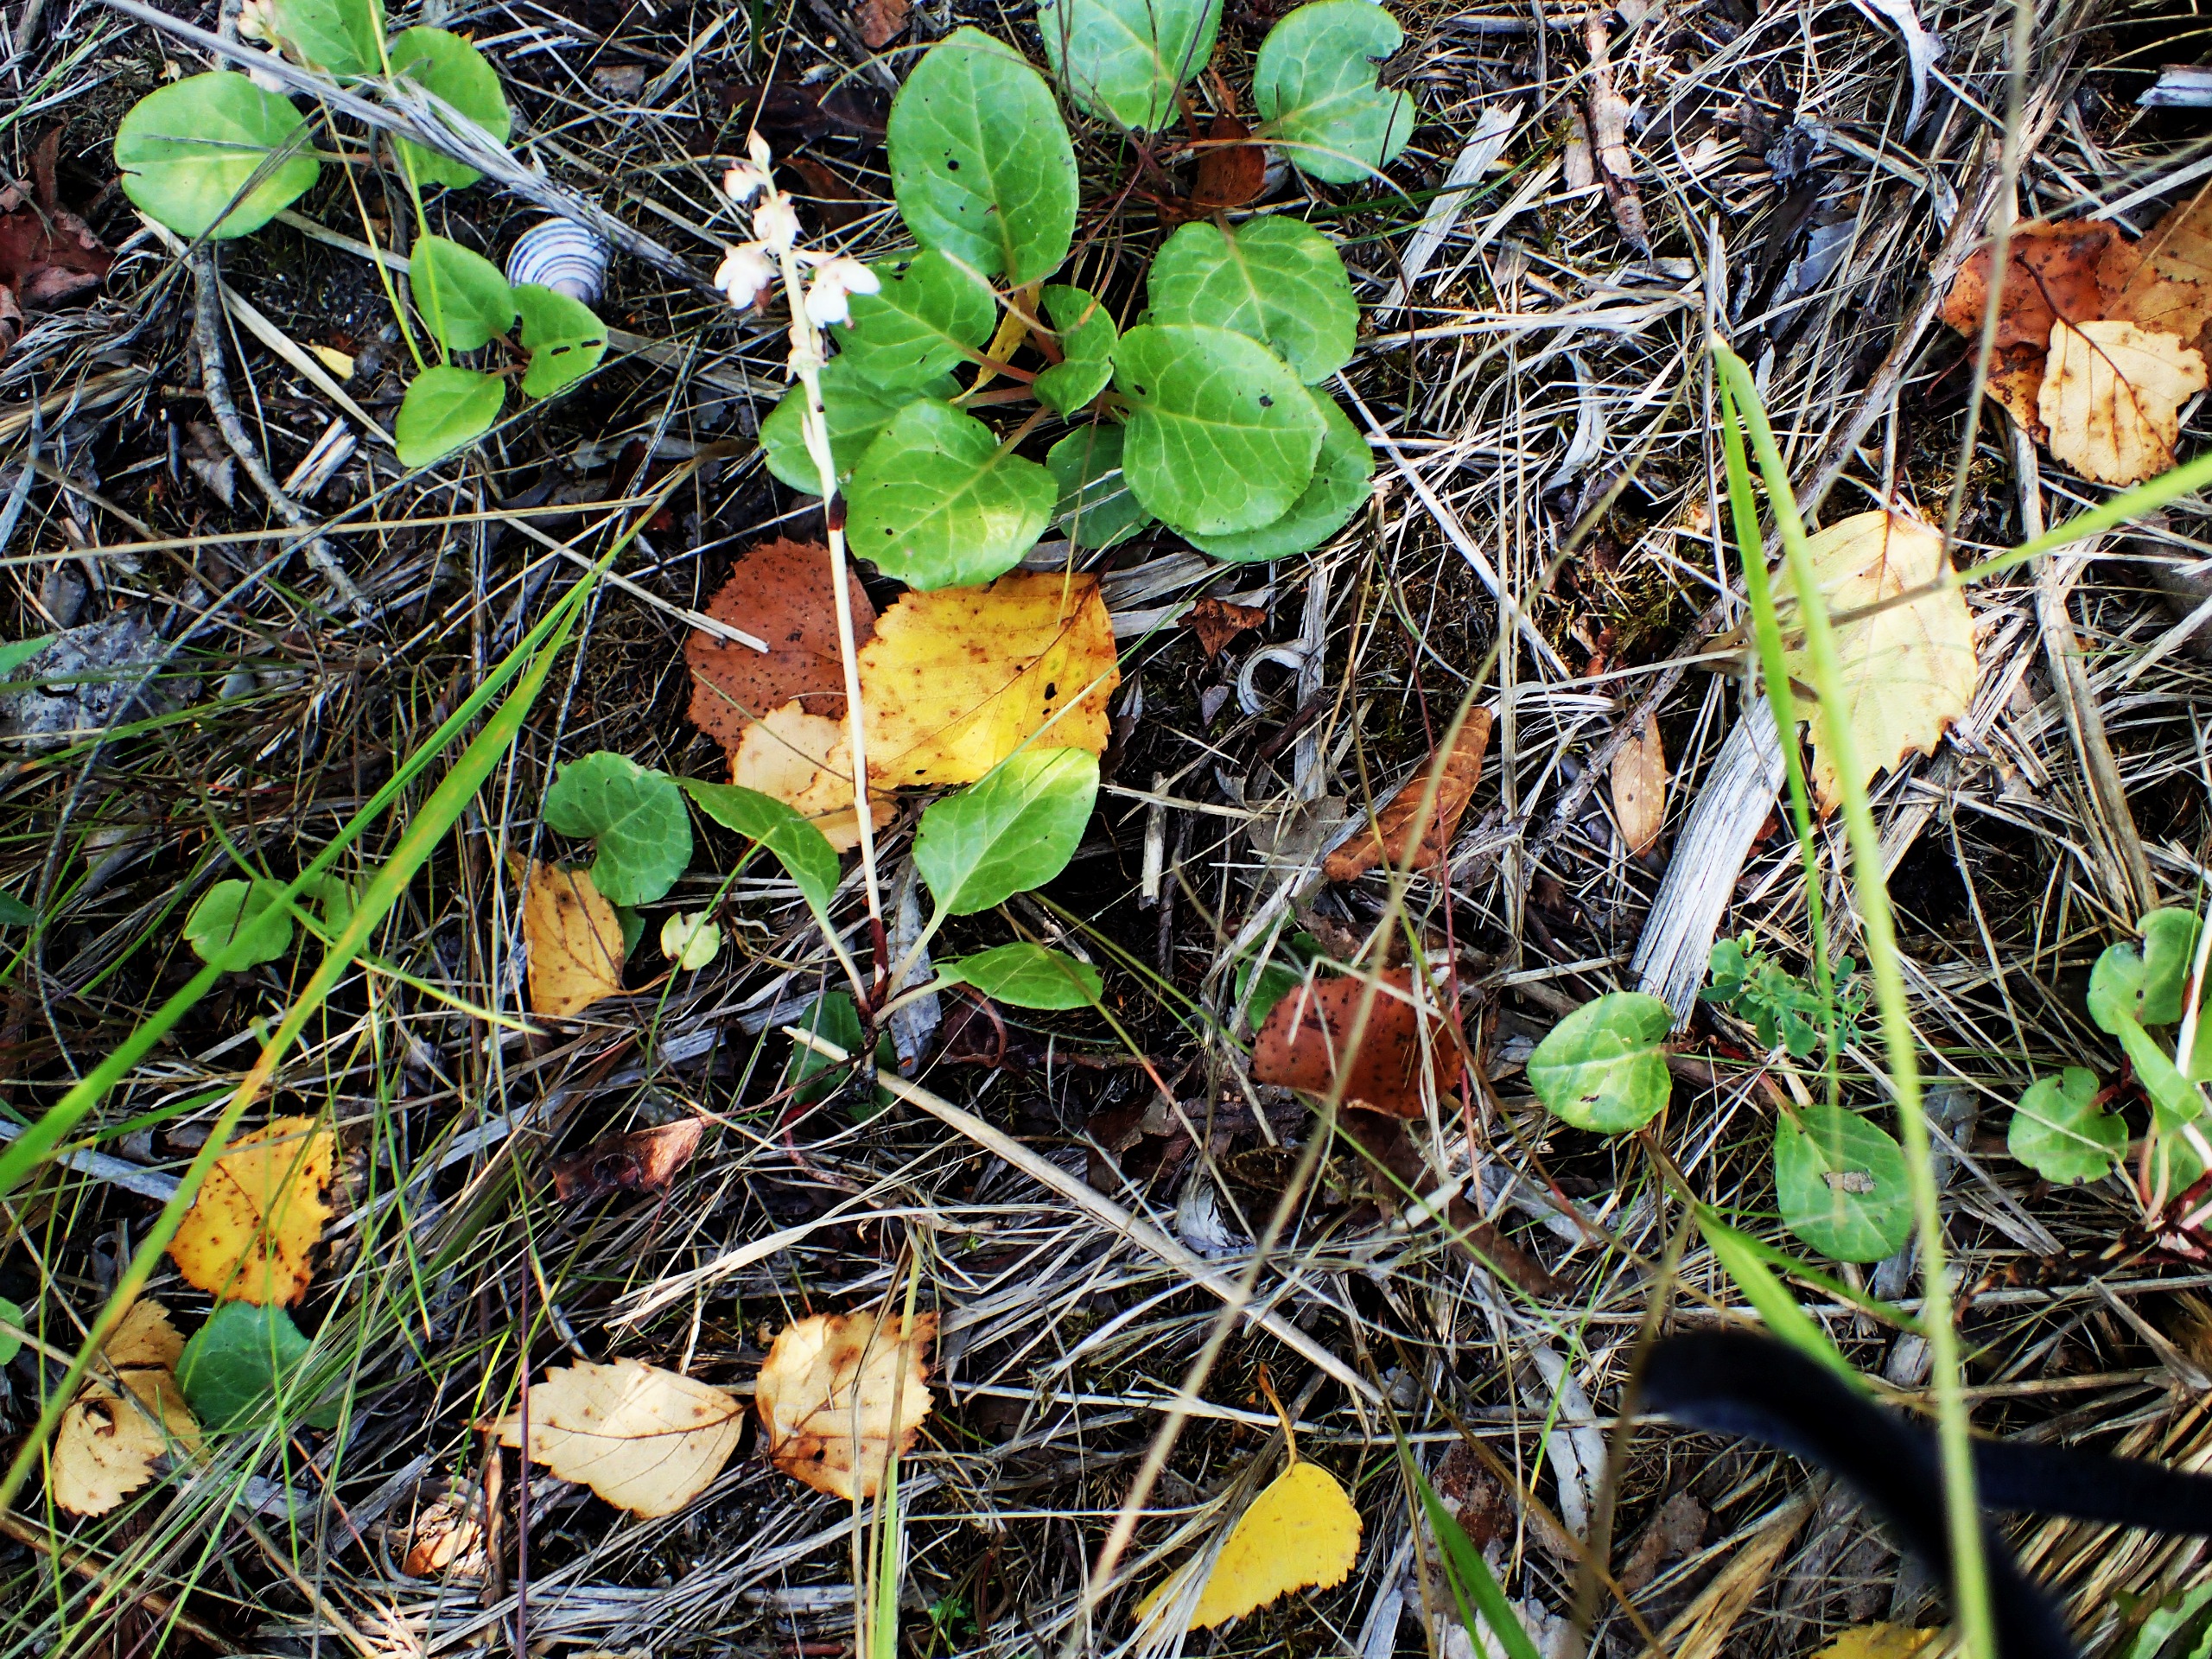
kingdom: Plantae
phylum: Tracheophyta
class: Magnoliopsida
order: Ericales
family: Ericaceae
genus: Pyrola
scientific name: Pyrola rotundifolia
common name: Mose-vintergrøn
